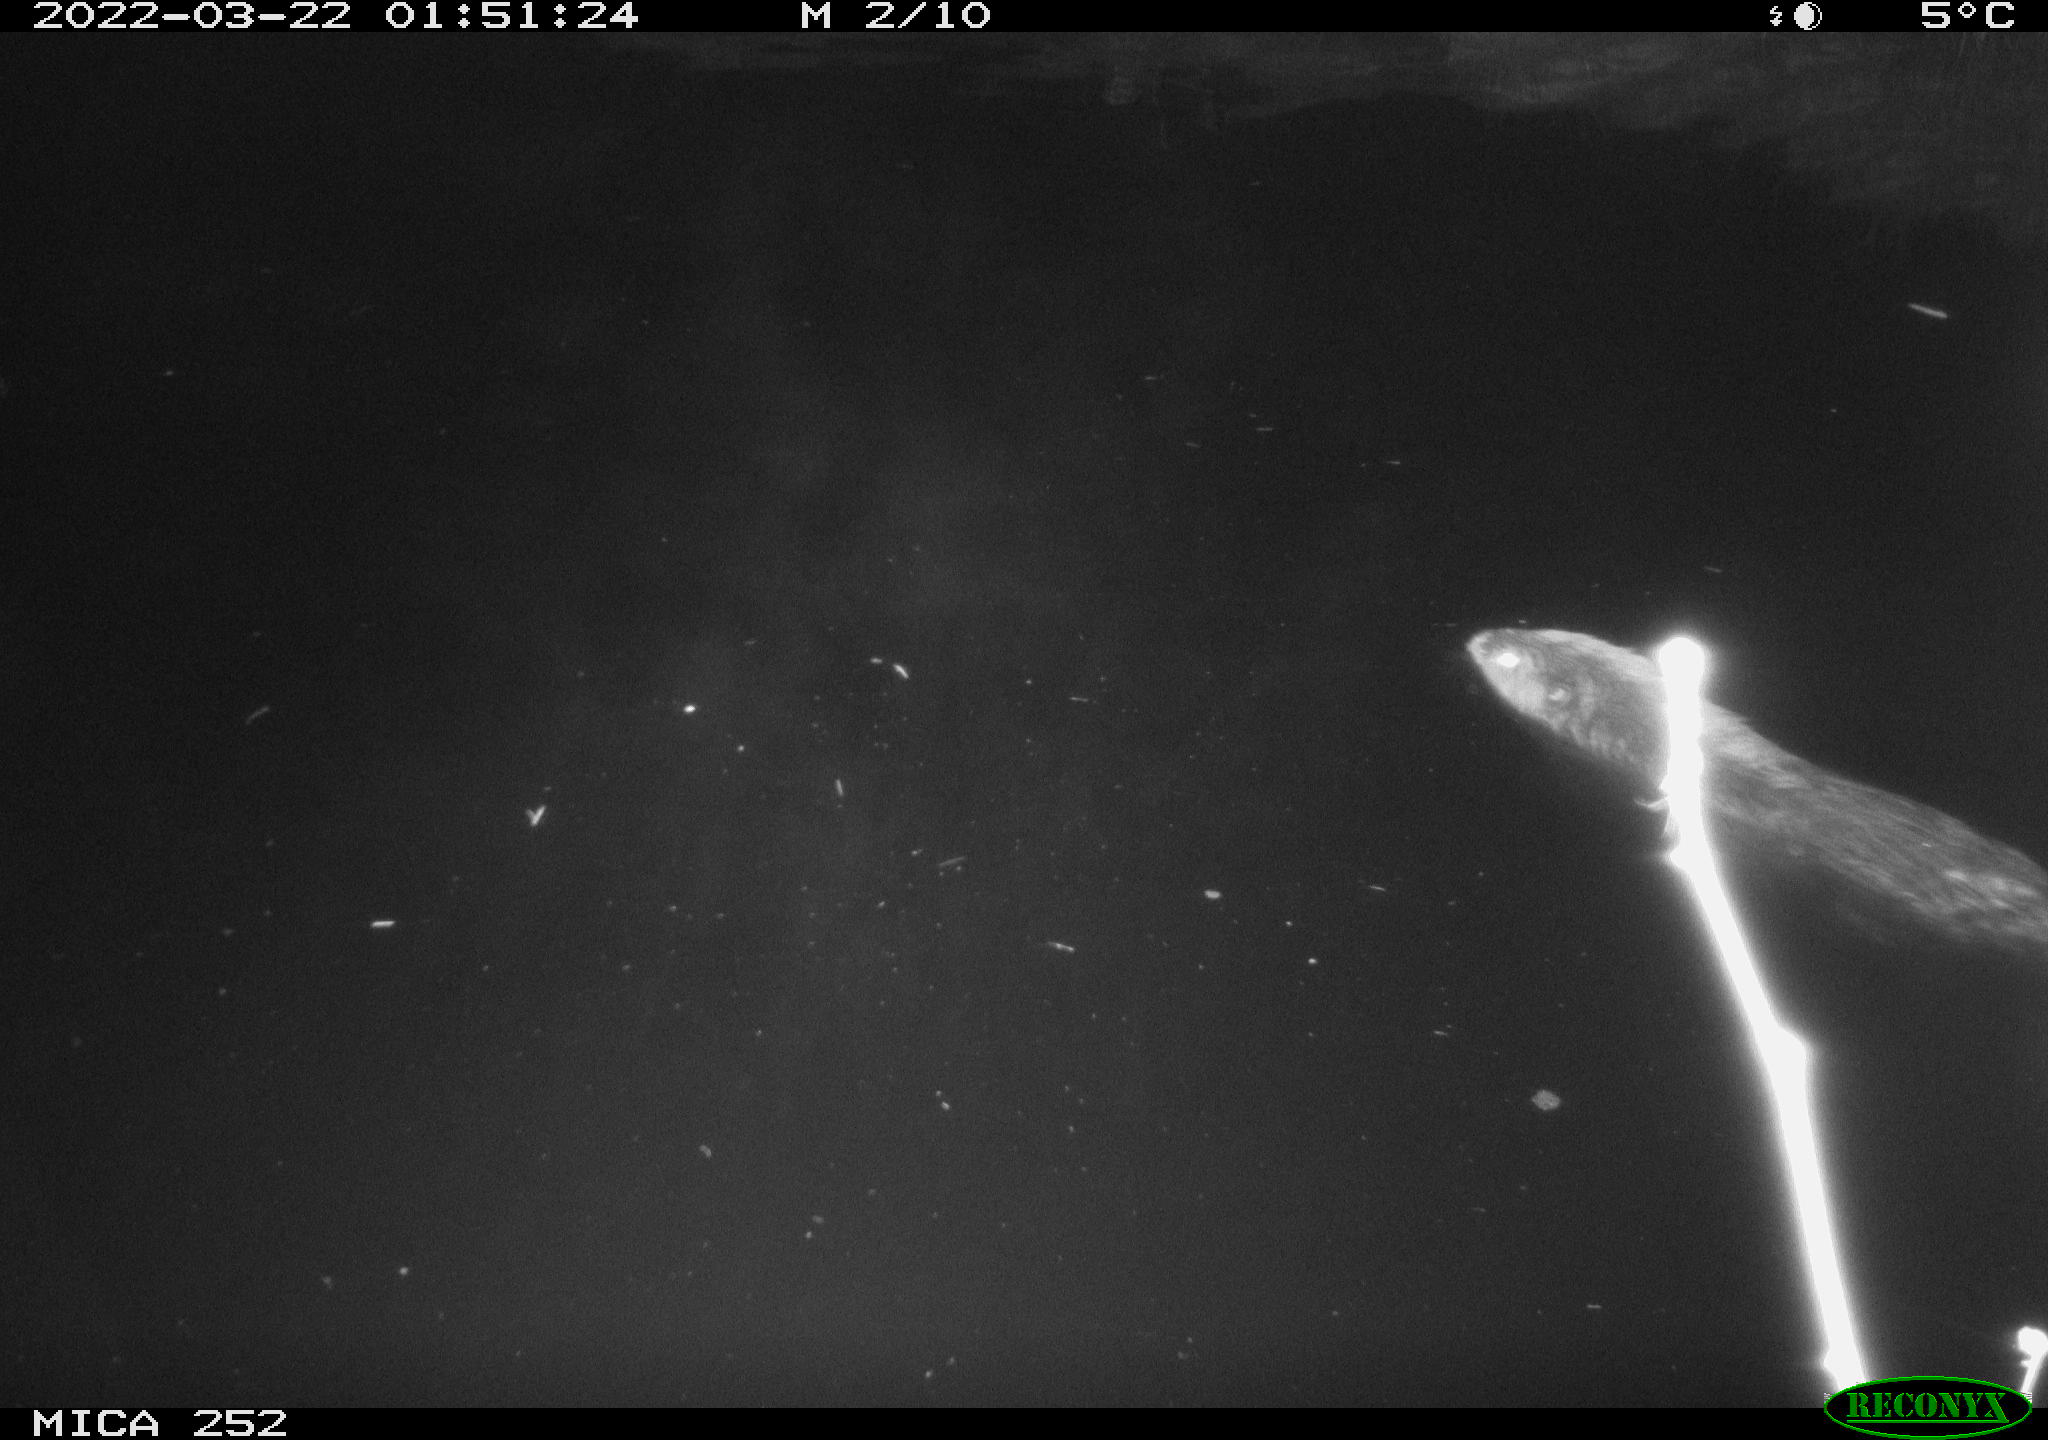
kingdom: Animalia
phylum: Chordata
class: Mammalia
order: Rodentia
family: Castoridae
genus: Castor
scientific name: Castor fiber
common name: Eurasian beaver
